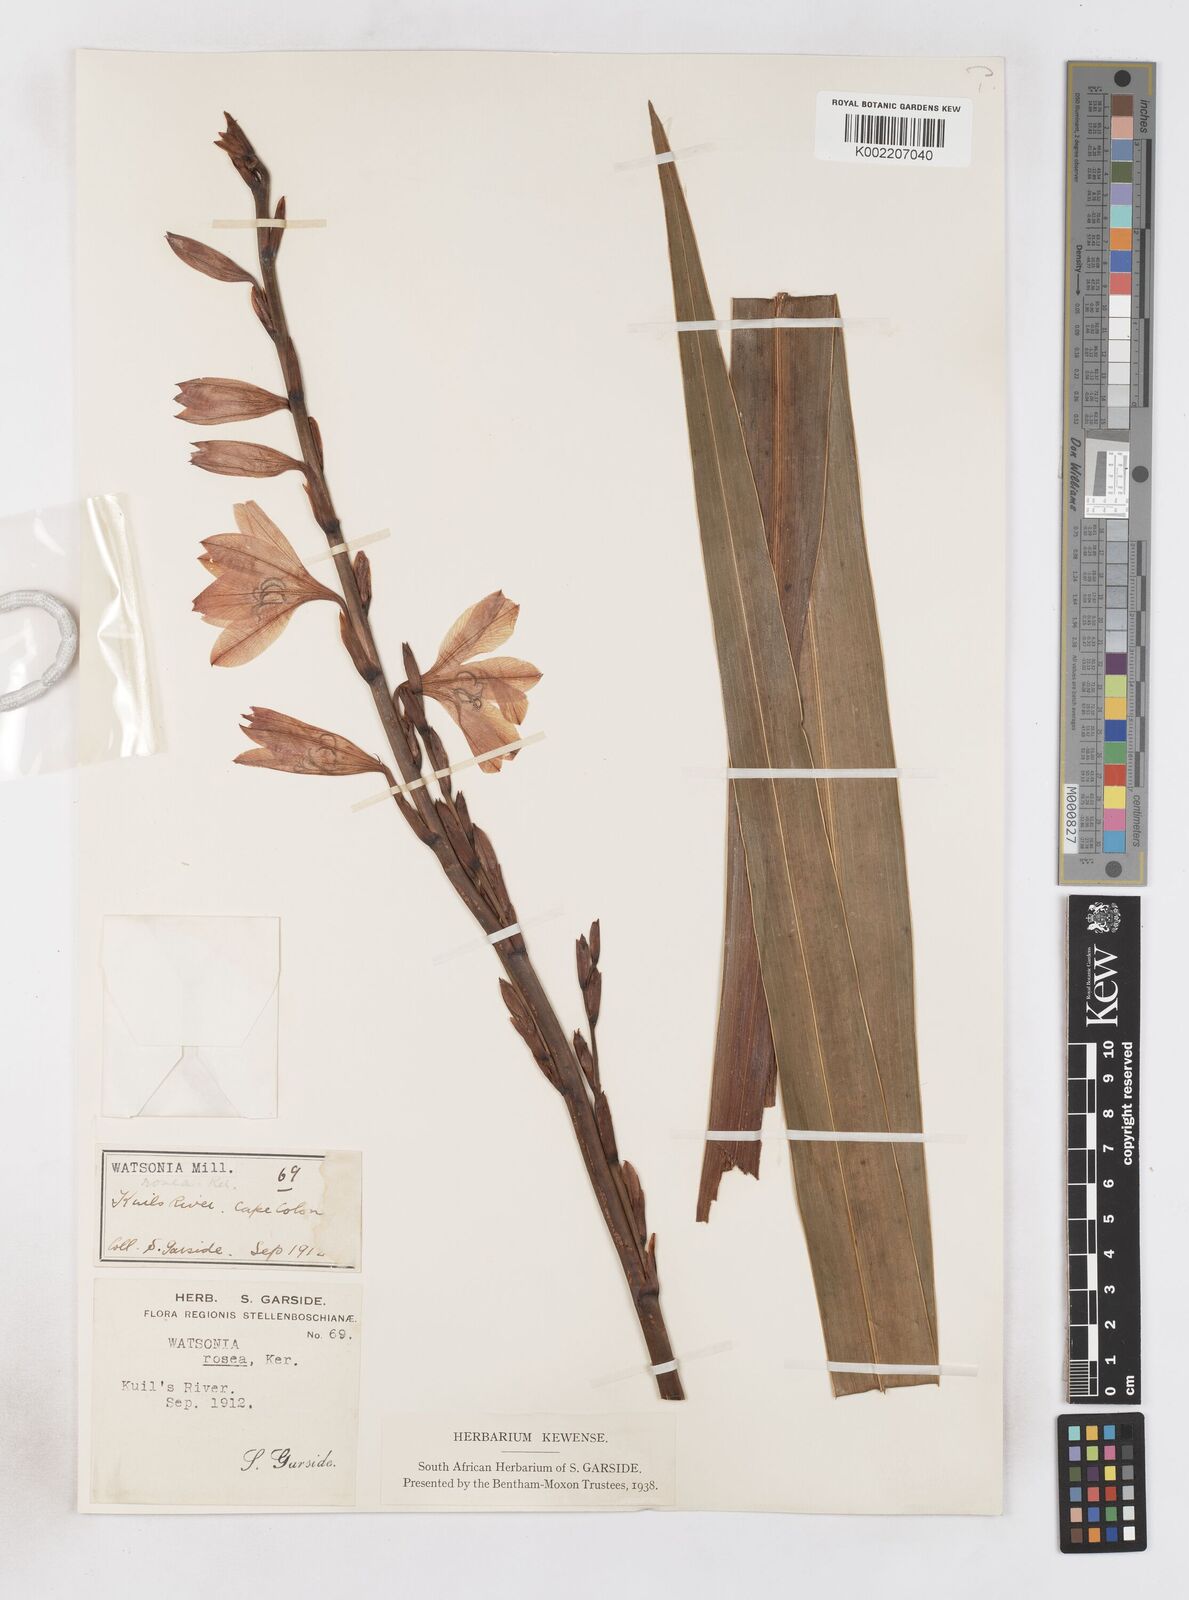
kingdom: Plantae
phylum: Tracheophyta
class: Liliopsida
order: Asparagales
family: Iridaceae
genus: Watsonia
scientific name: Watsonia borbonica
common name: Bugle-lily
